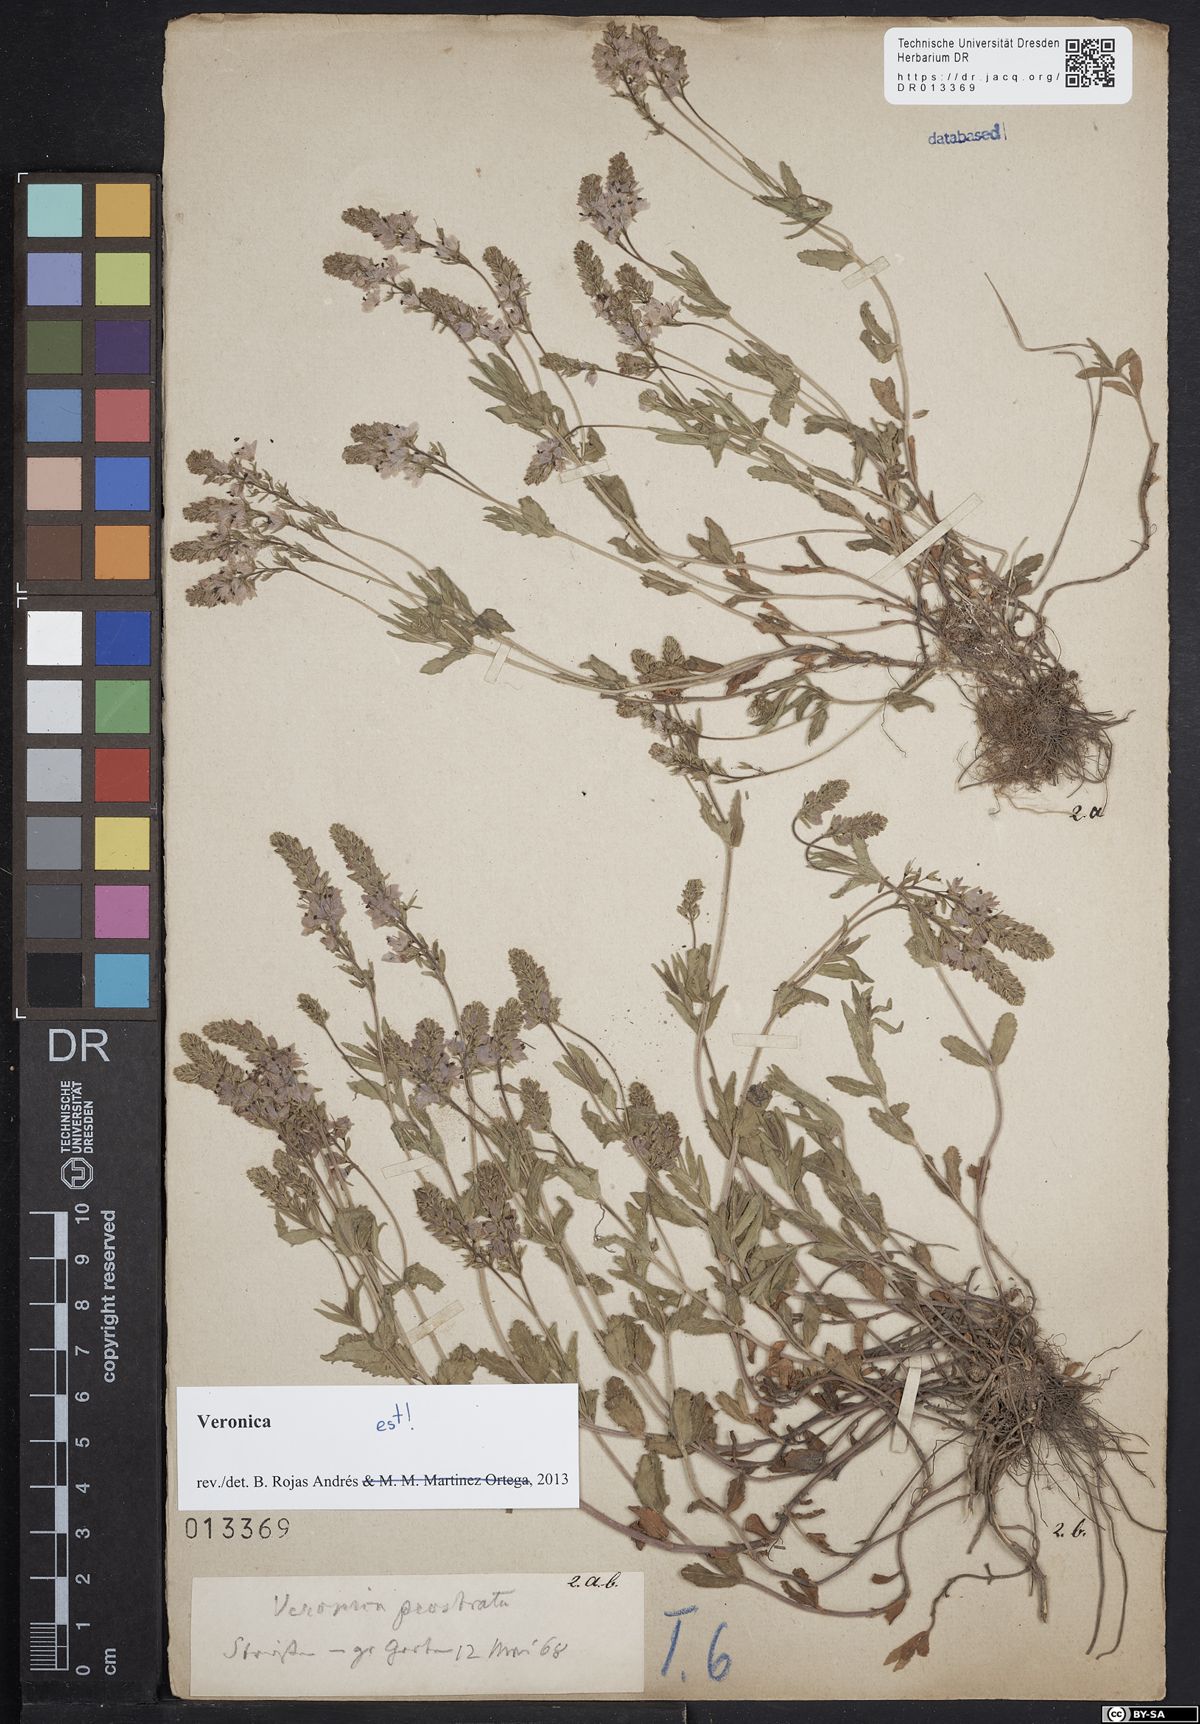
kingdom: Plantae
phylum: Tracheophyta
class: Magnoliopsida
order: Lamiales
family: Plantaginaceae
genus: Veronica
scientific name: Veronica prostrata
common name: Prostrate speedwell
